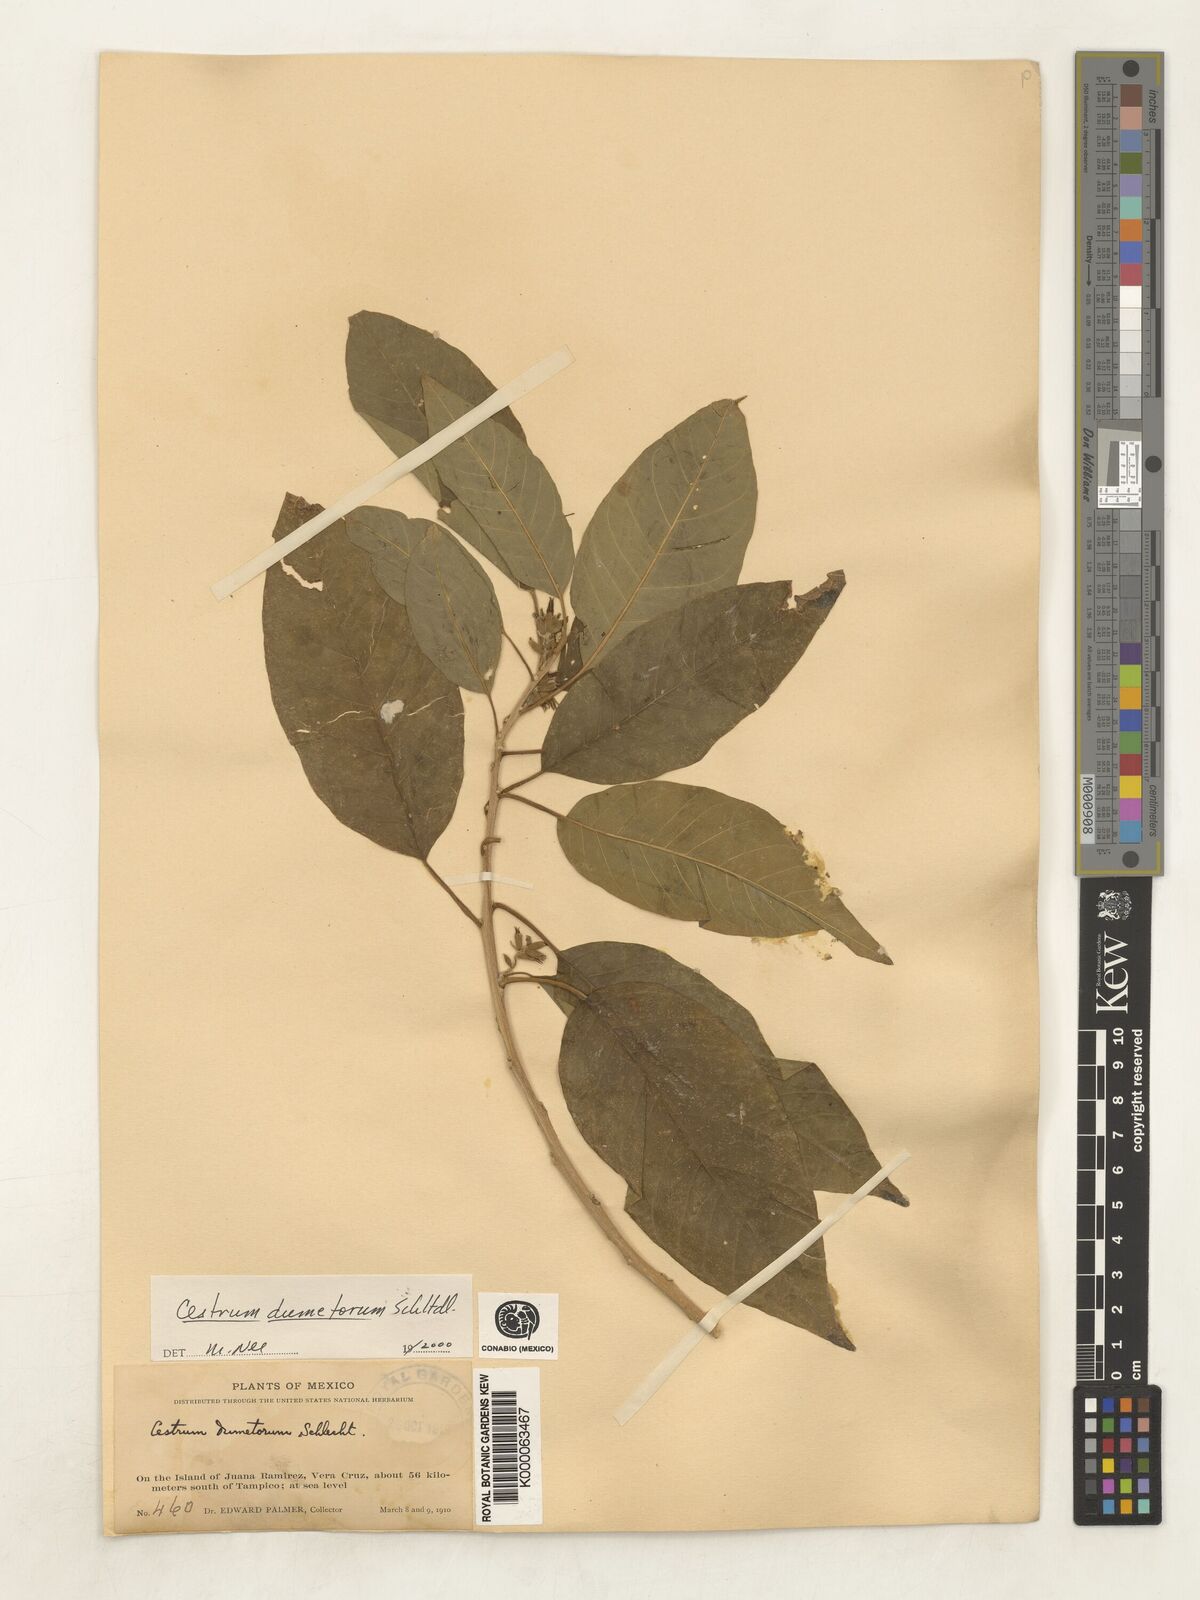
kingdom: Plantae
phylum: Tracheophyta
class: Magnoliopsida
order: Solanales
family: Solanaceae
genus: Cestrum
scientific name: Cestrum dumetorum
